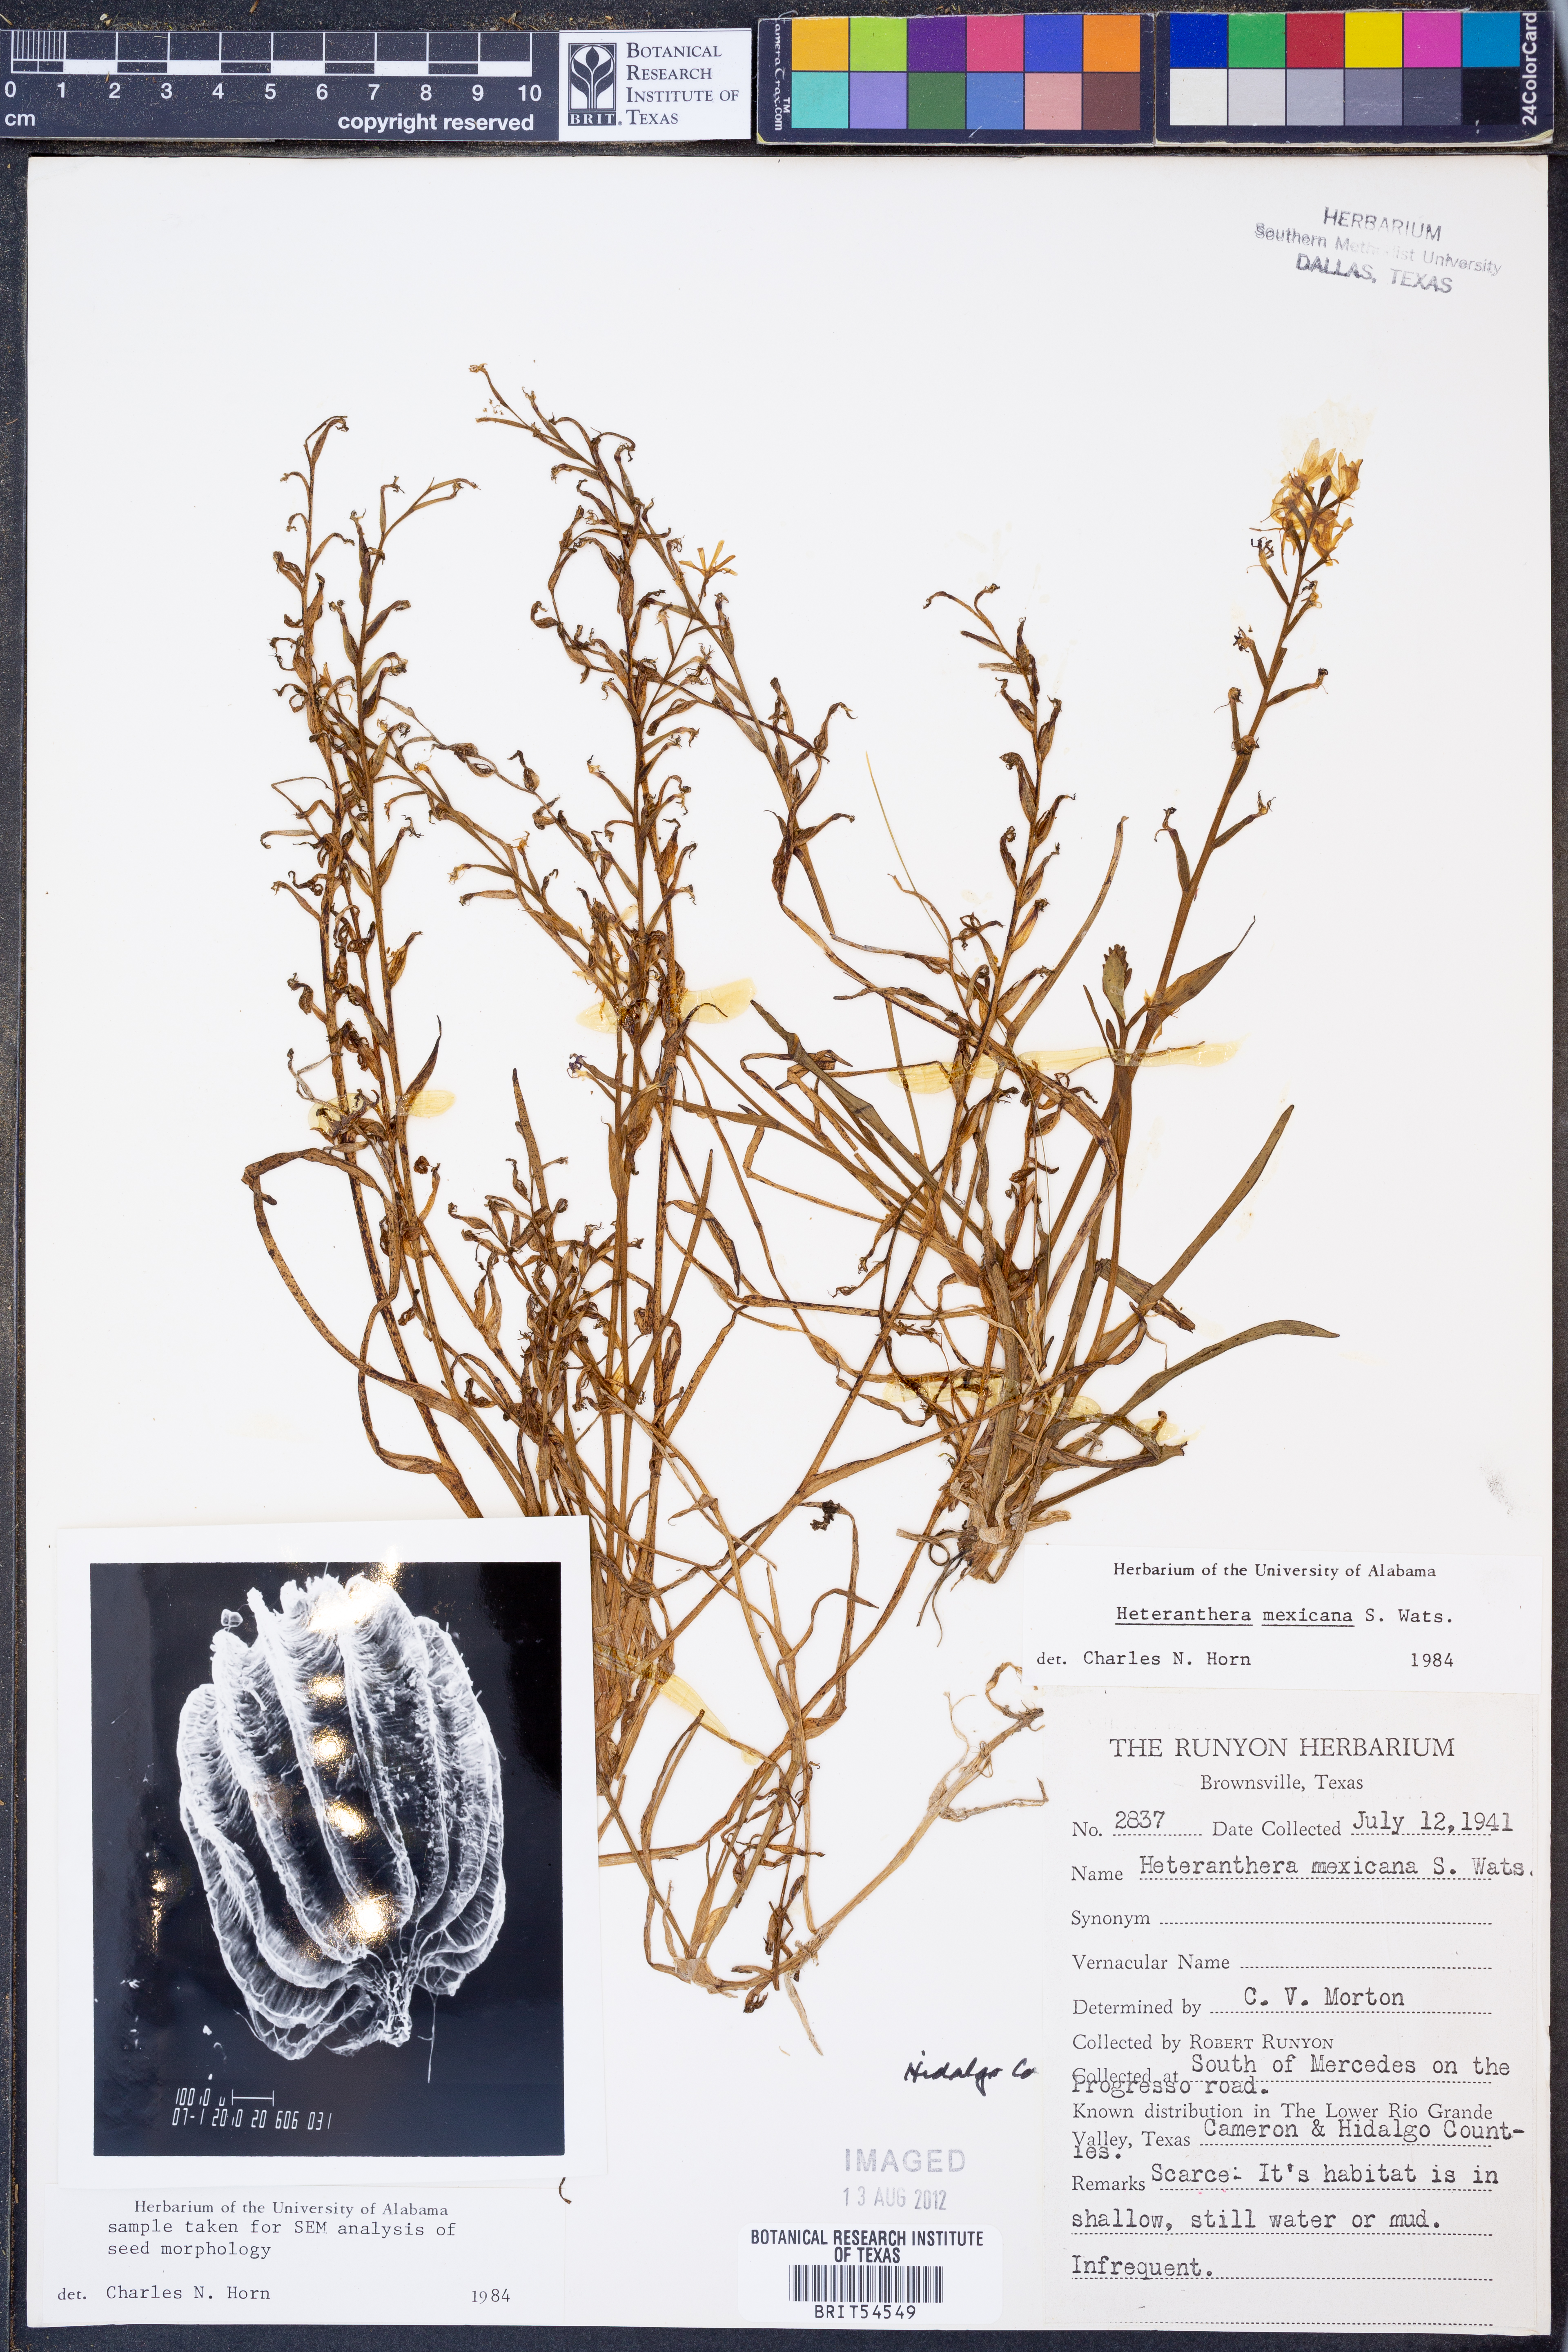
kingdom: Plantae
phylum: Tracheophyta
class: Liliopsida
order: Commelinales
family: Pontederiaceae
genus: Heteranthera
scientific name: Heteranthera mexicana
